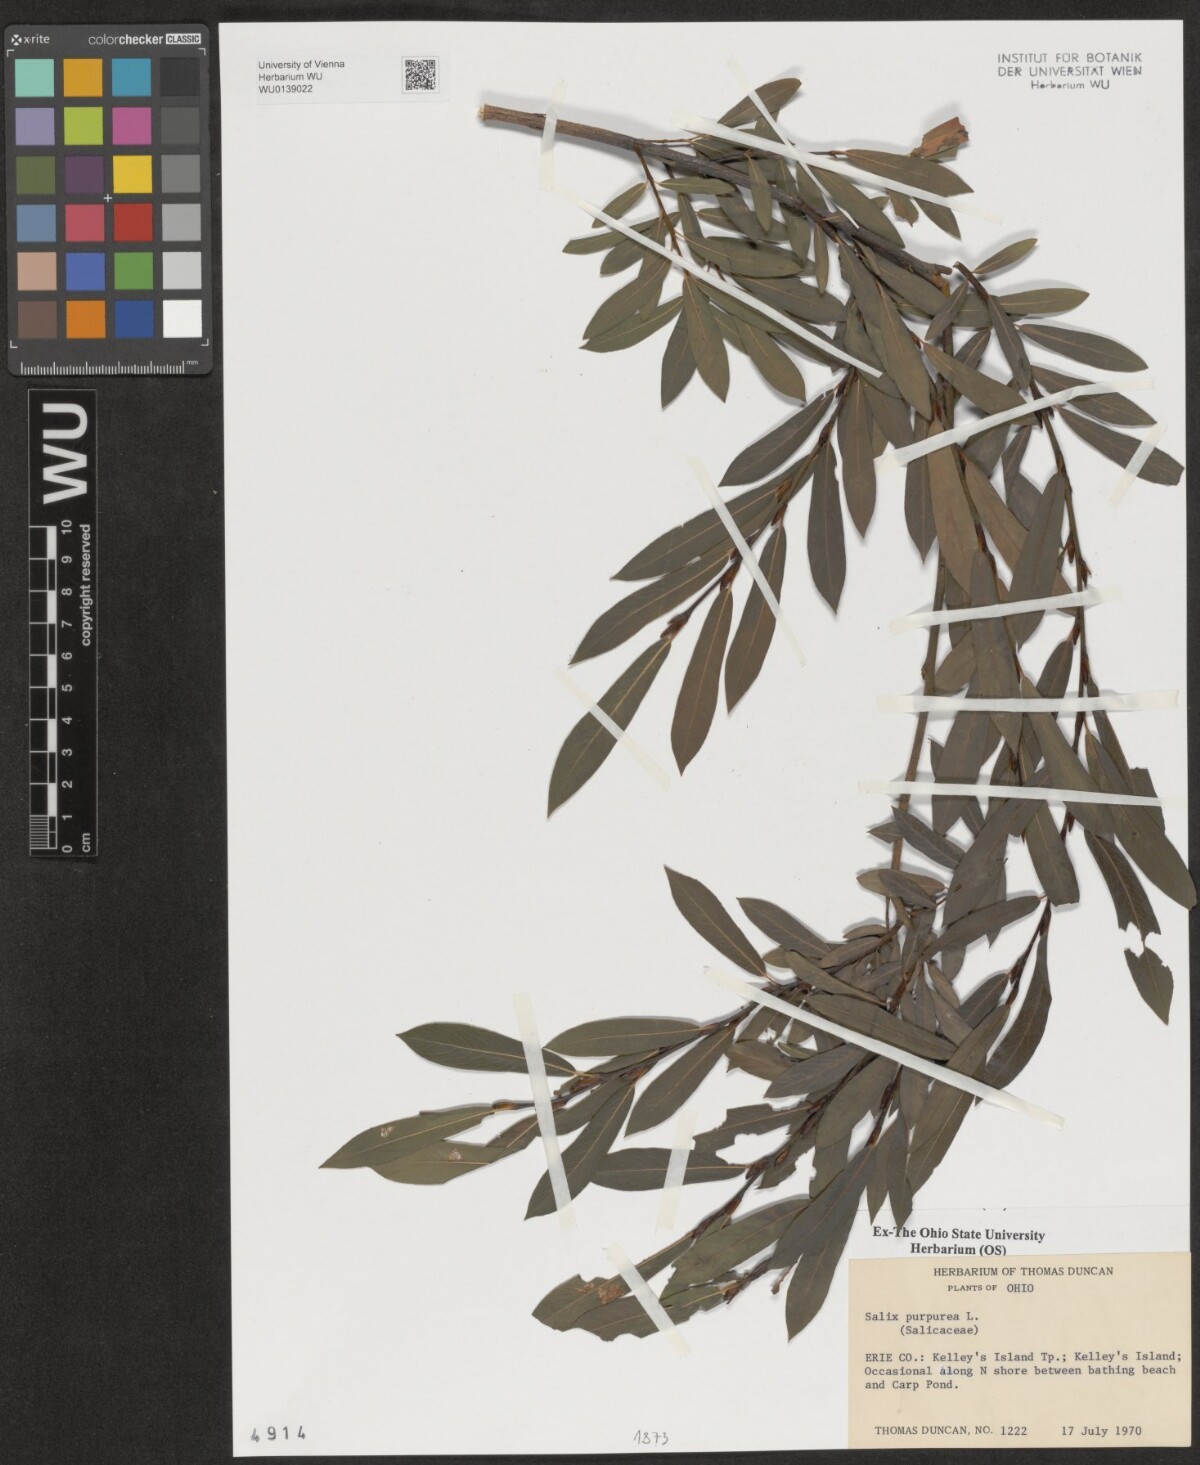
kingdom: Plantae
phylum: Tracheophyta
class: Magnoliopsida
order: Malpighiales
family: Salicaceae
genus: Salix
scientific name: Salix purpurea
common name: Purple willow
